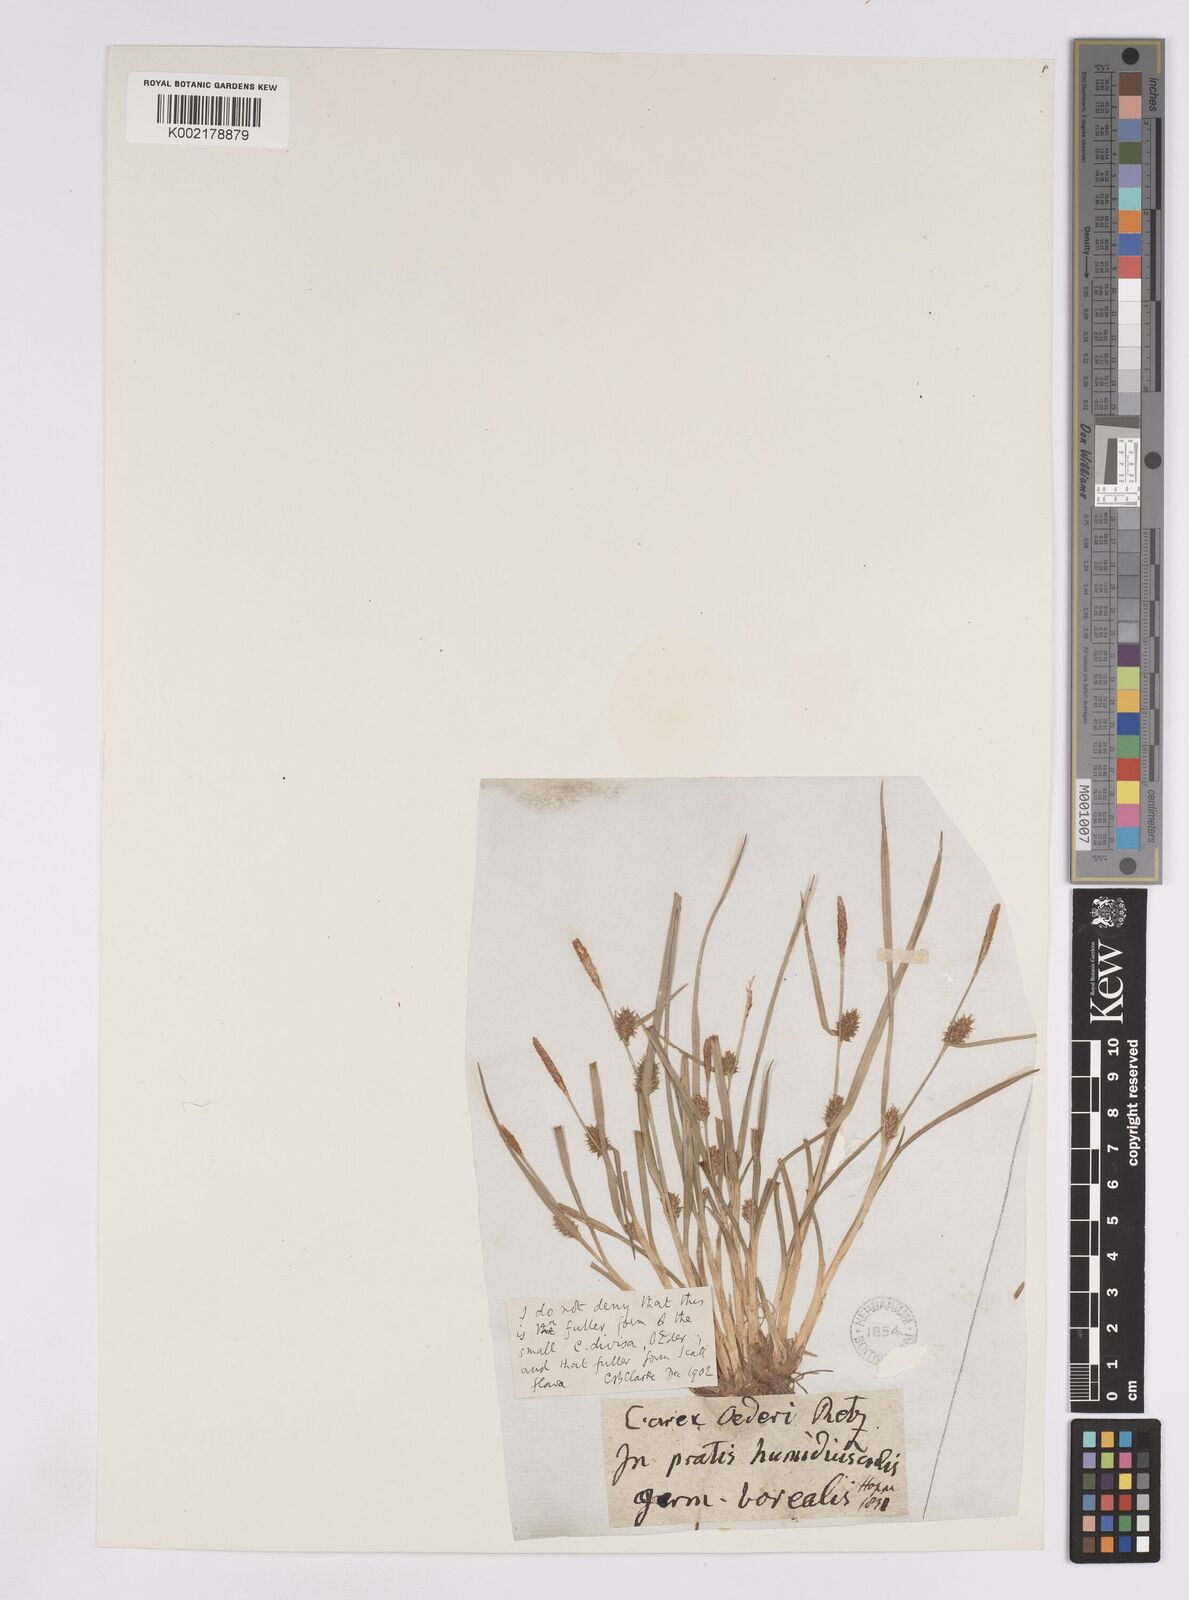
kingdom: Plantae
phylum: Tracheophyta
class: Liliopsida
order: Poales
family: Cyperaceae
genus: Carex
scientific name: Carex lepidocarpa
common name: Long-stalked yellow-sedge
